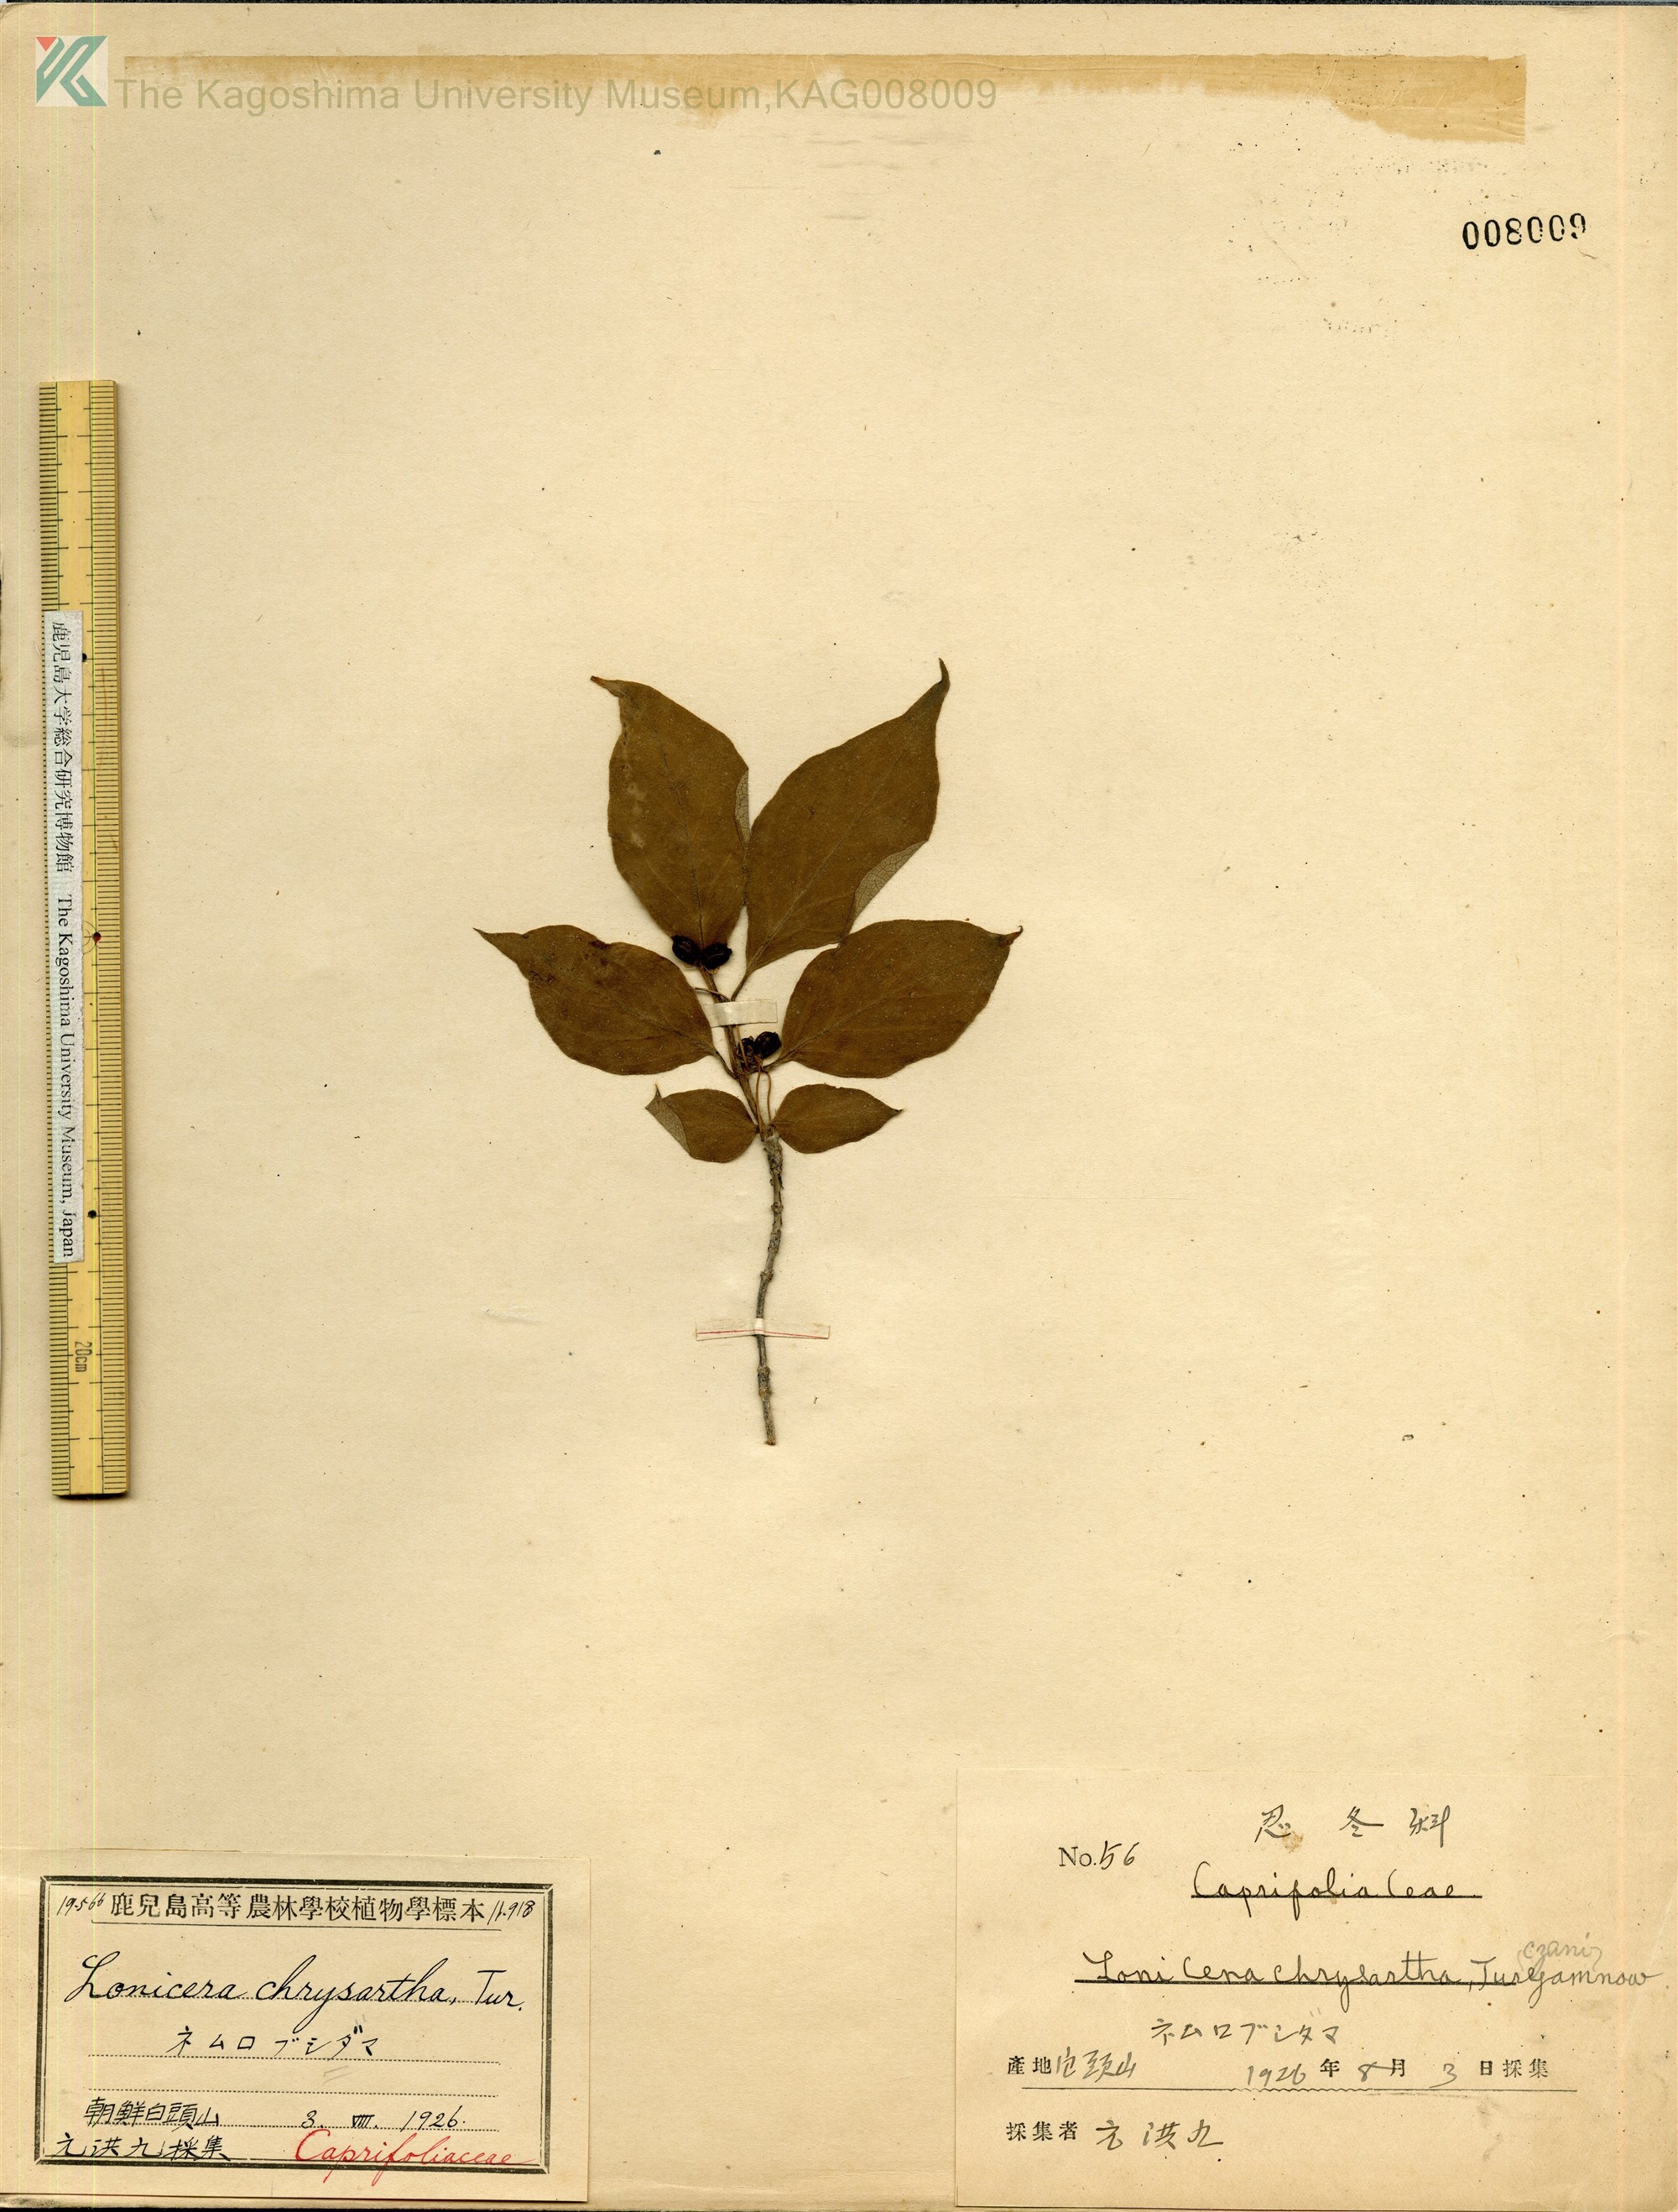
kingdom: Plantae
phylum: Tracheophyta
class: Magnoliopsida
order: Dipsacales
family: Caprifoliaceae
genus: Lonicera
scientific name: Lonicera chrysantha
